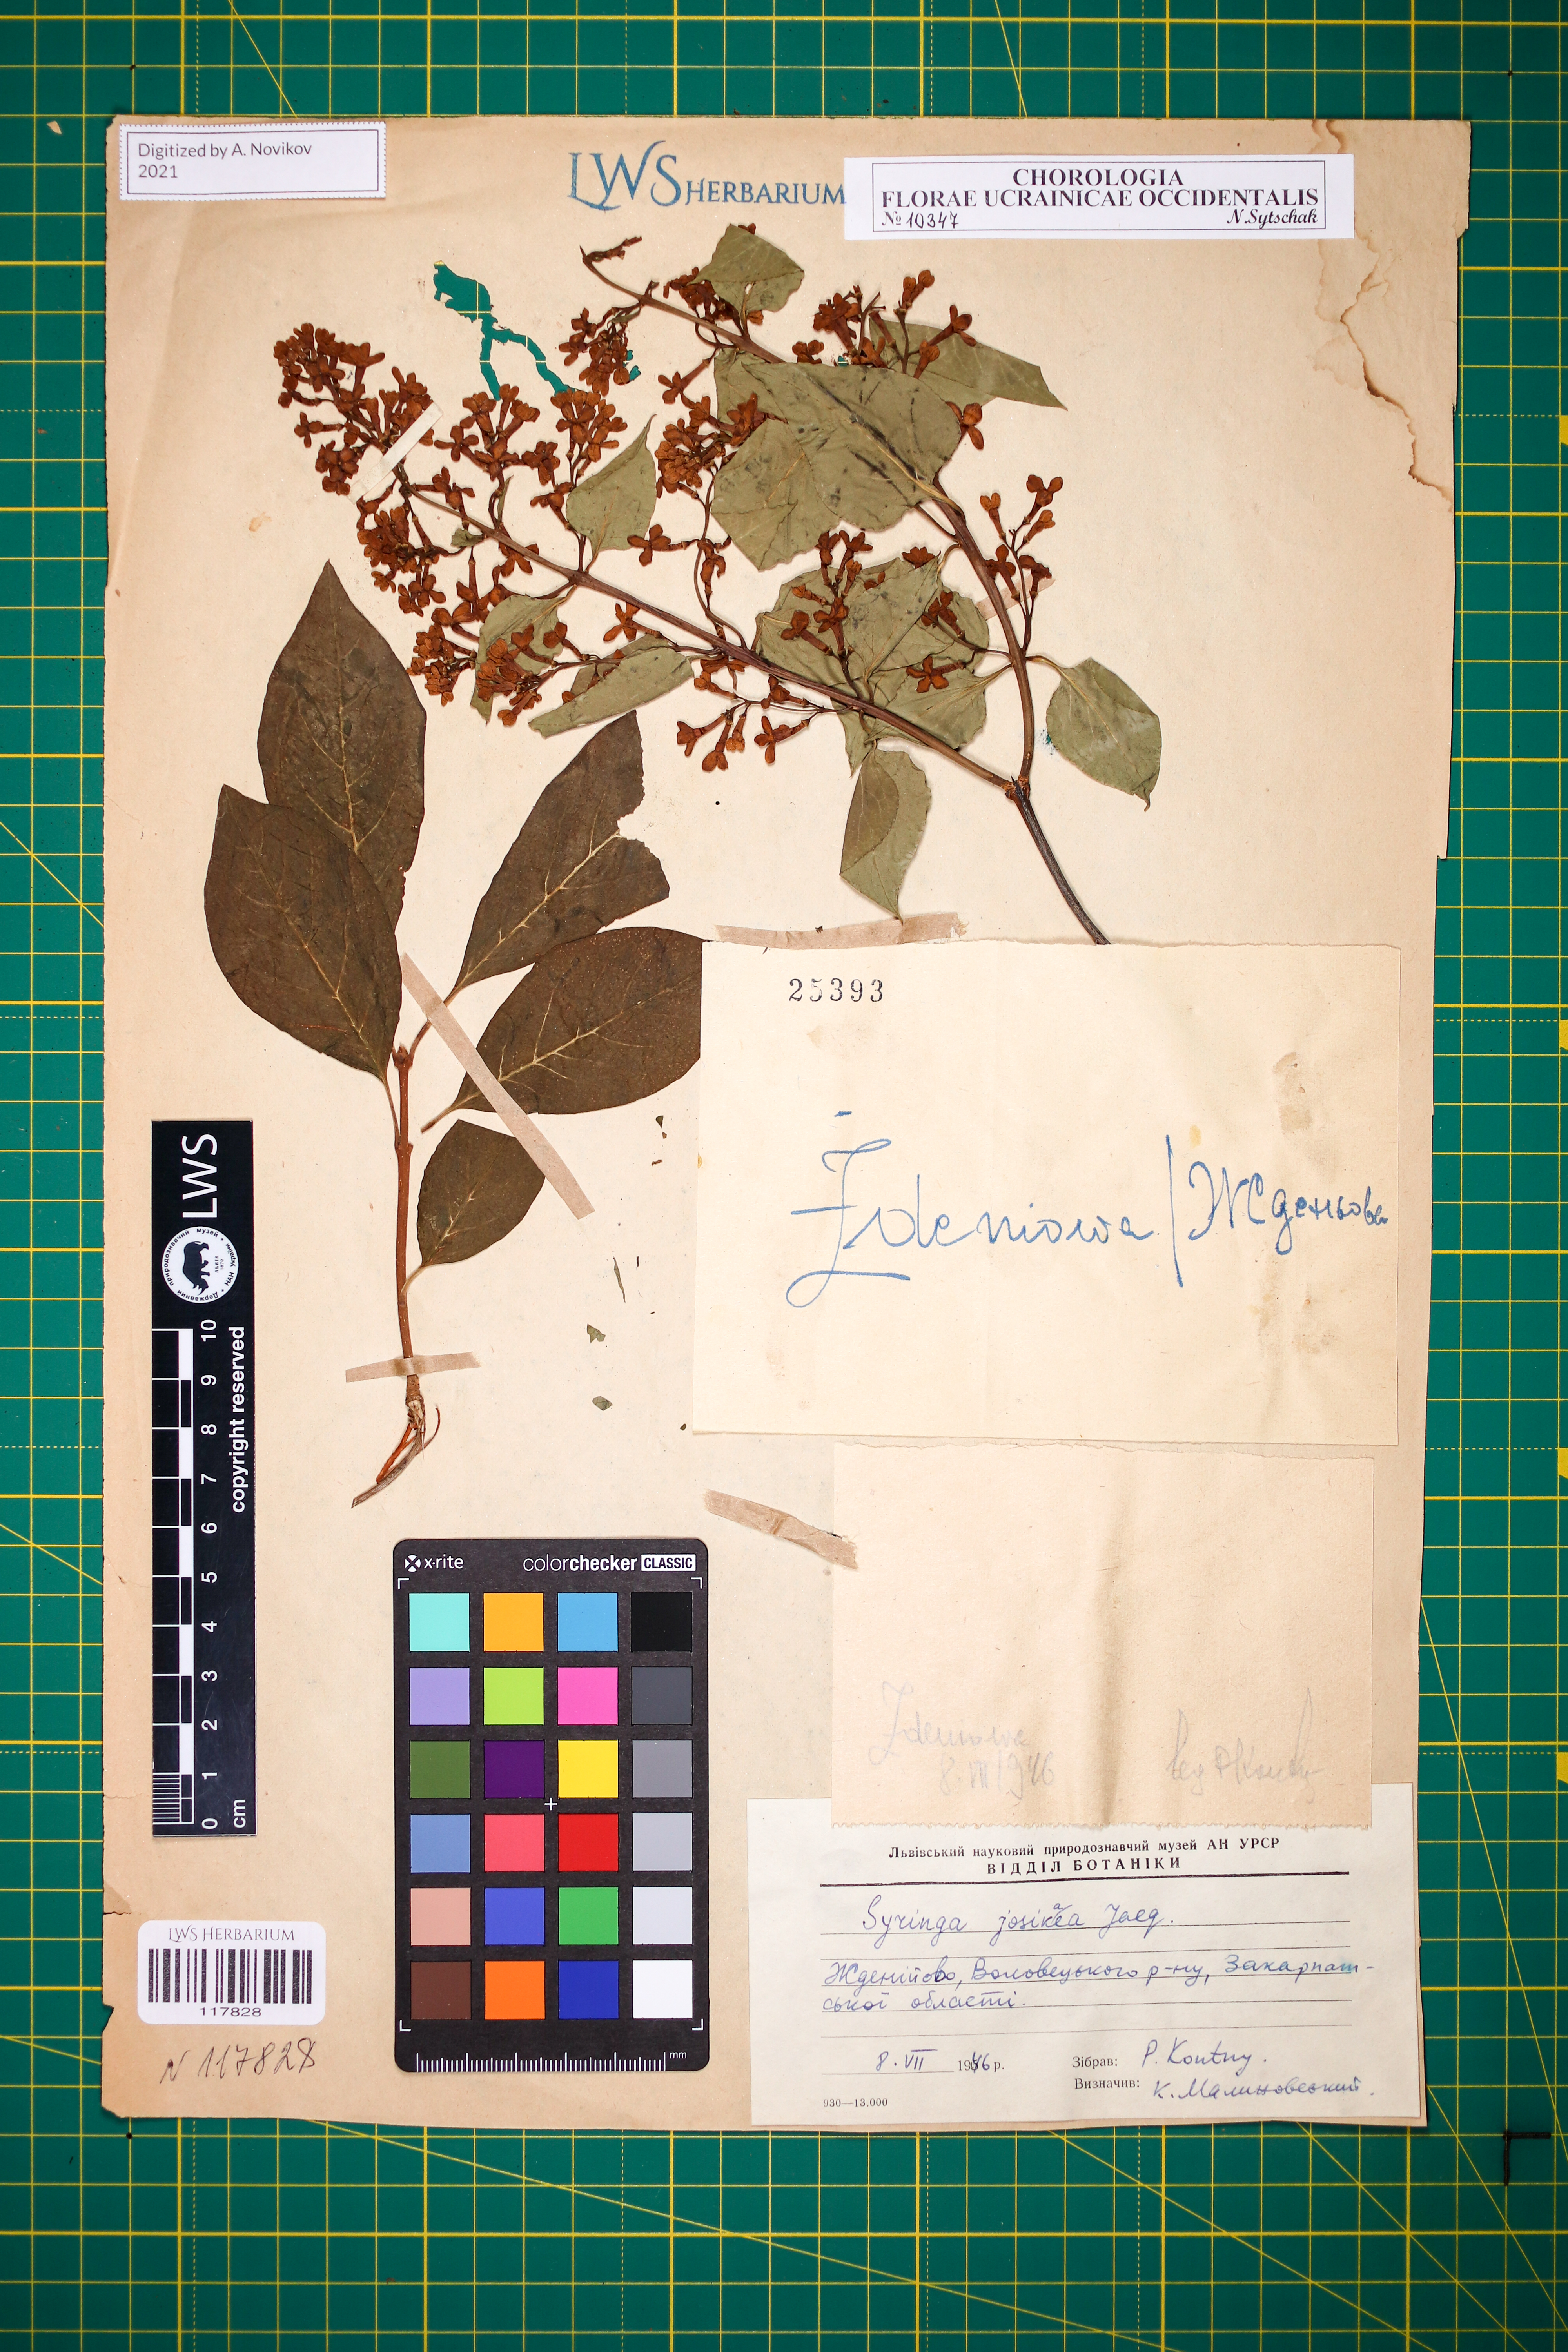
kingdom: Plantae
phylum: Tracheophyta
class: Magnoliopsida
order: Lamiales
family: Oleaceae
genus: Syringa
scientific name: Syringa josikaea
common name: Hungarian lilac
